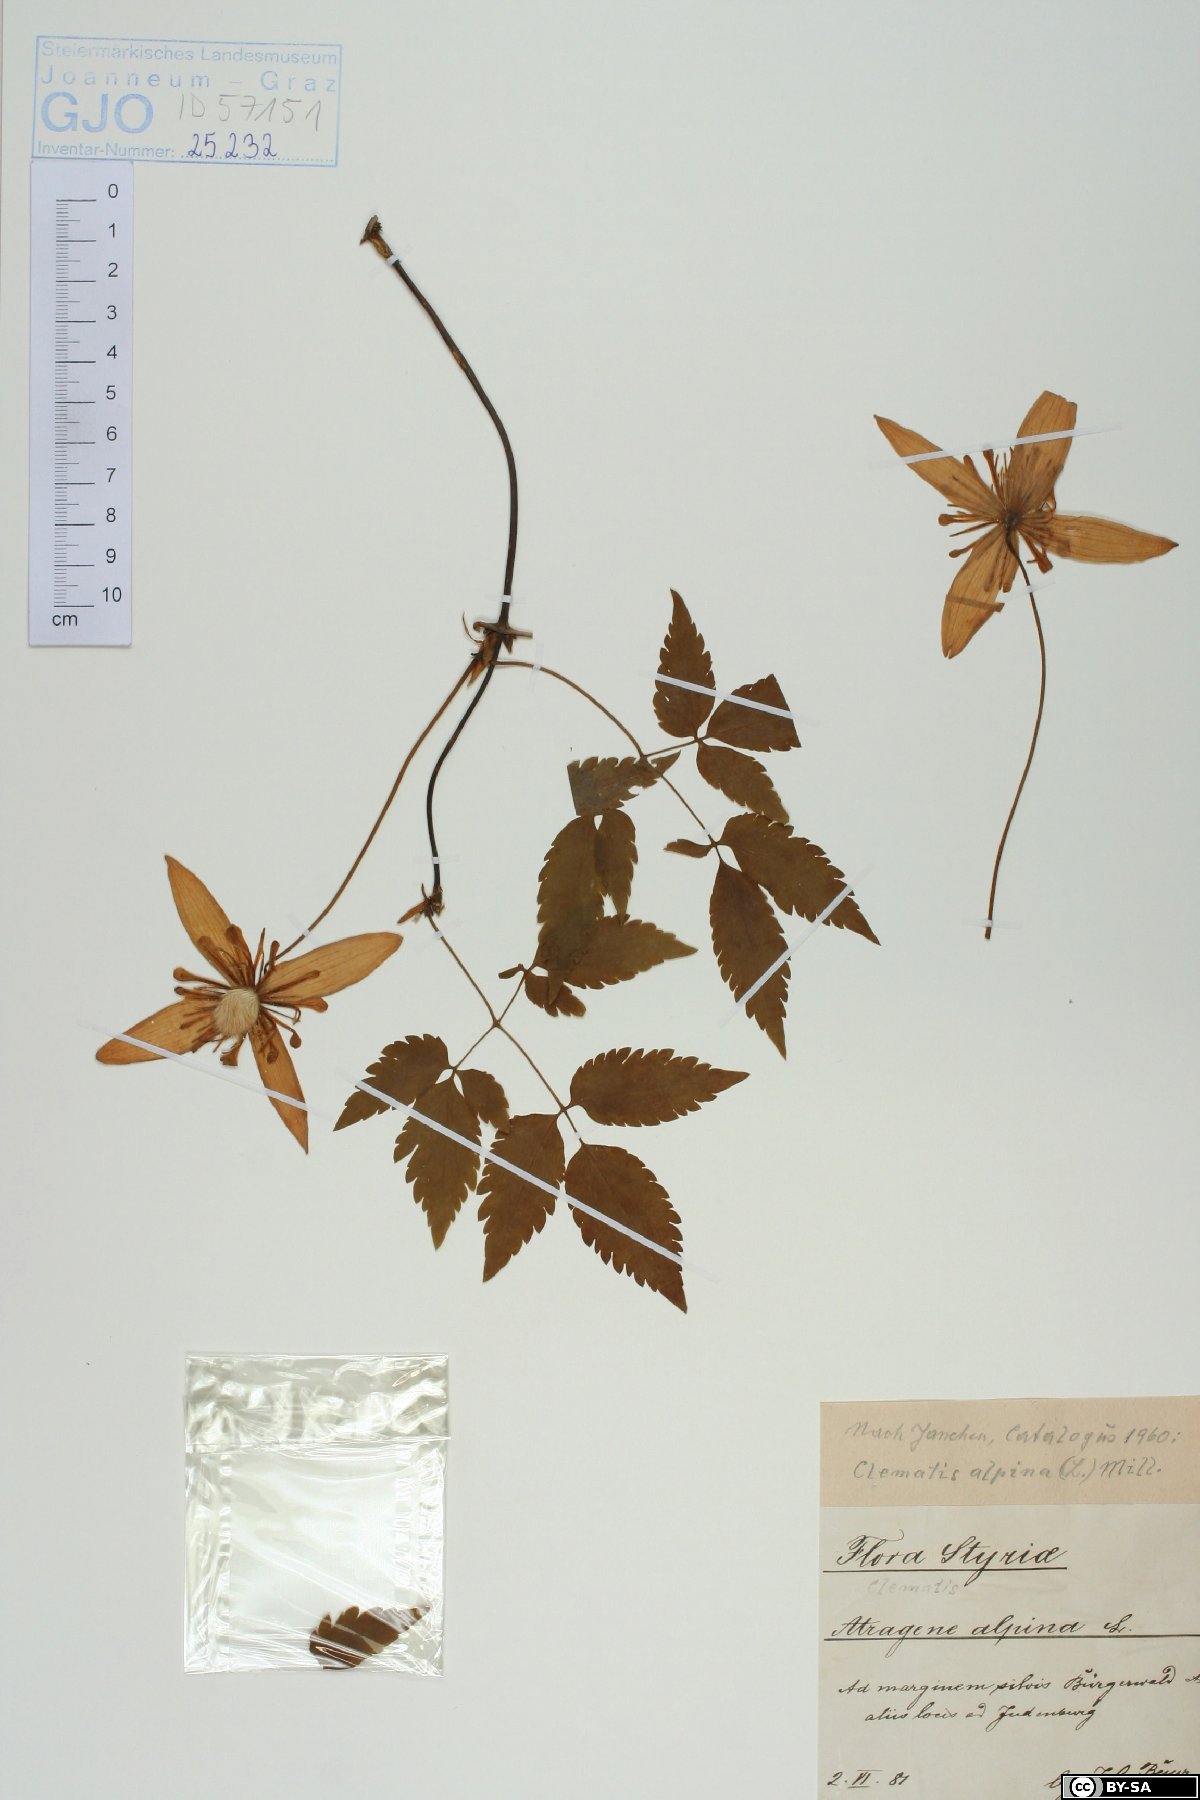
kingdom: Plantae
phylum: Tracheophyta
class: Magnoliopsida
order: Ranunculales
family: Ranunculaceae
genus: Clematis
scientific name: Clematis alpina
